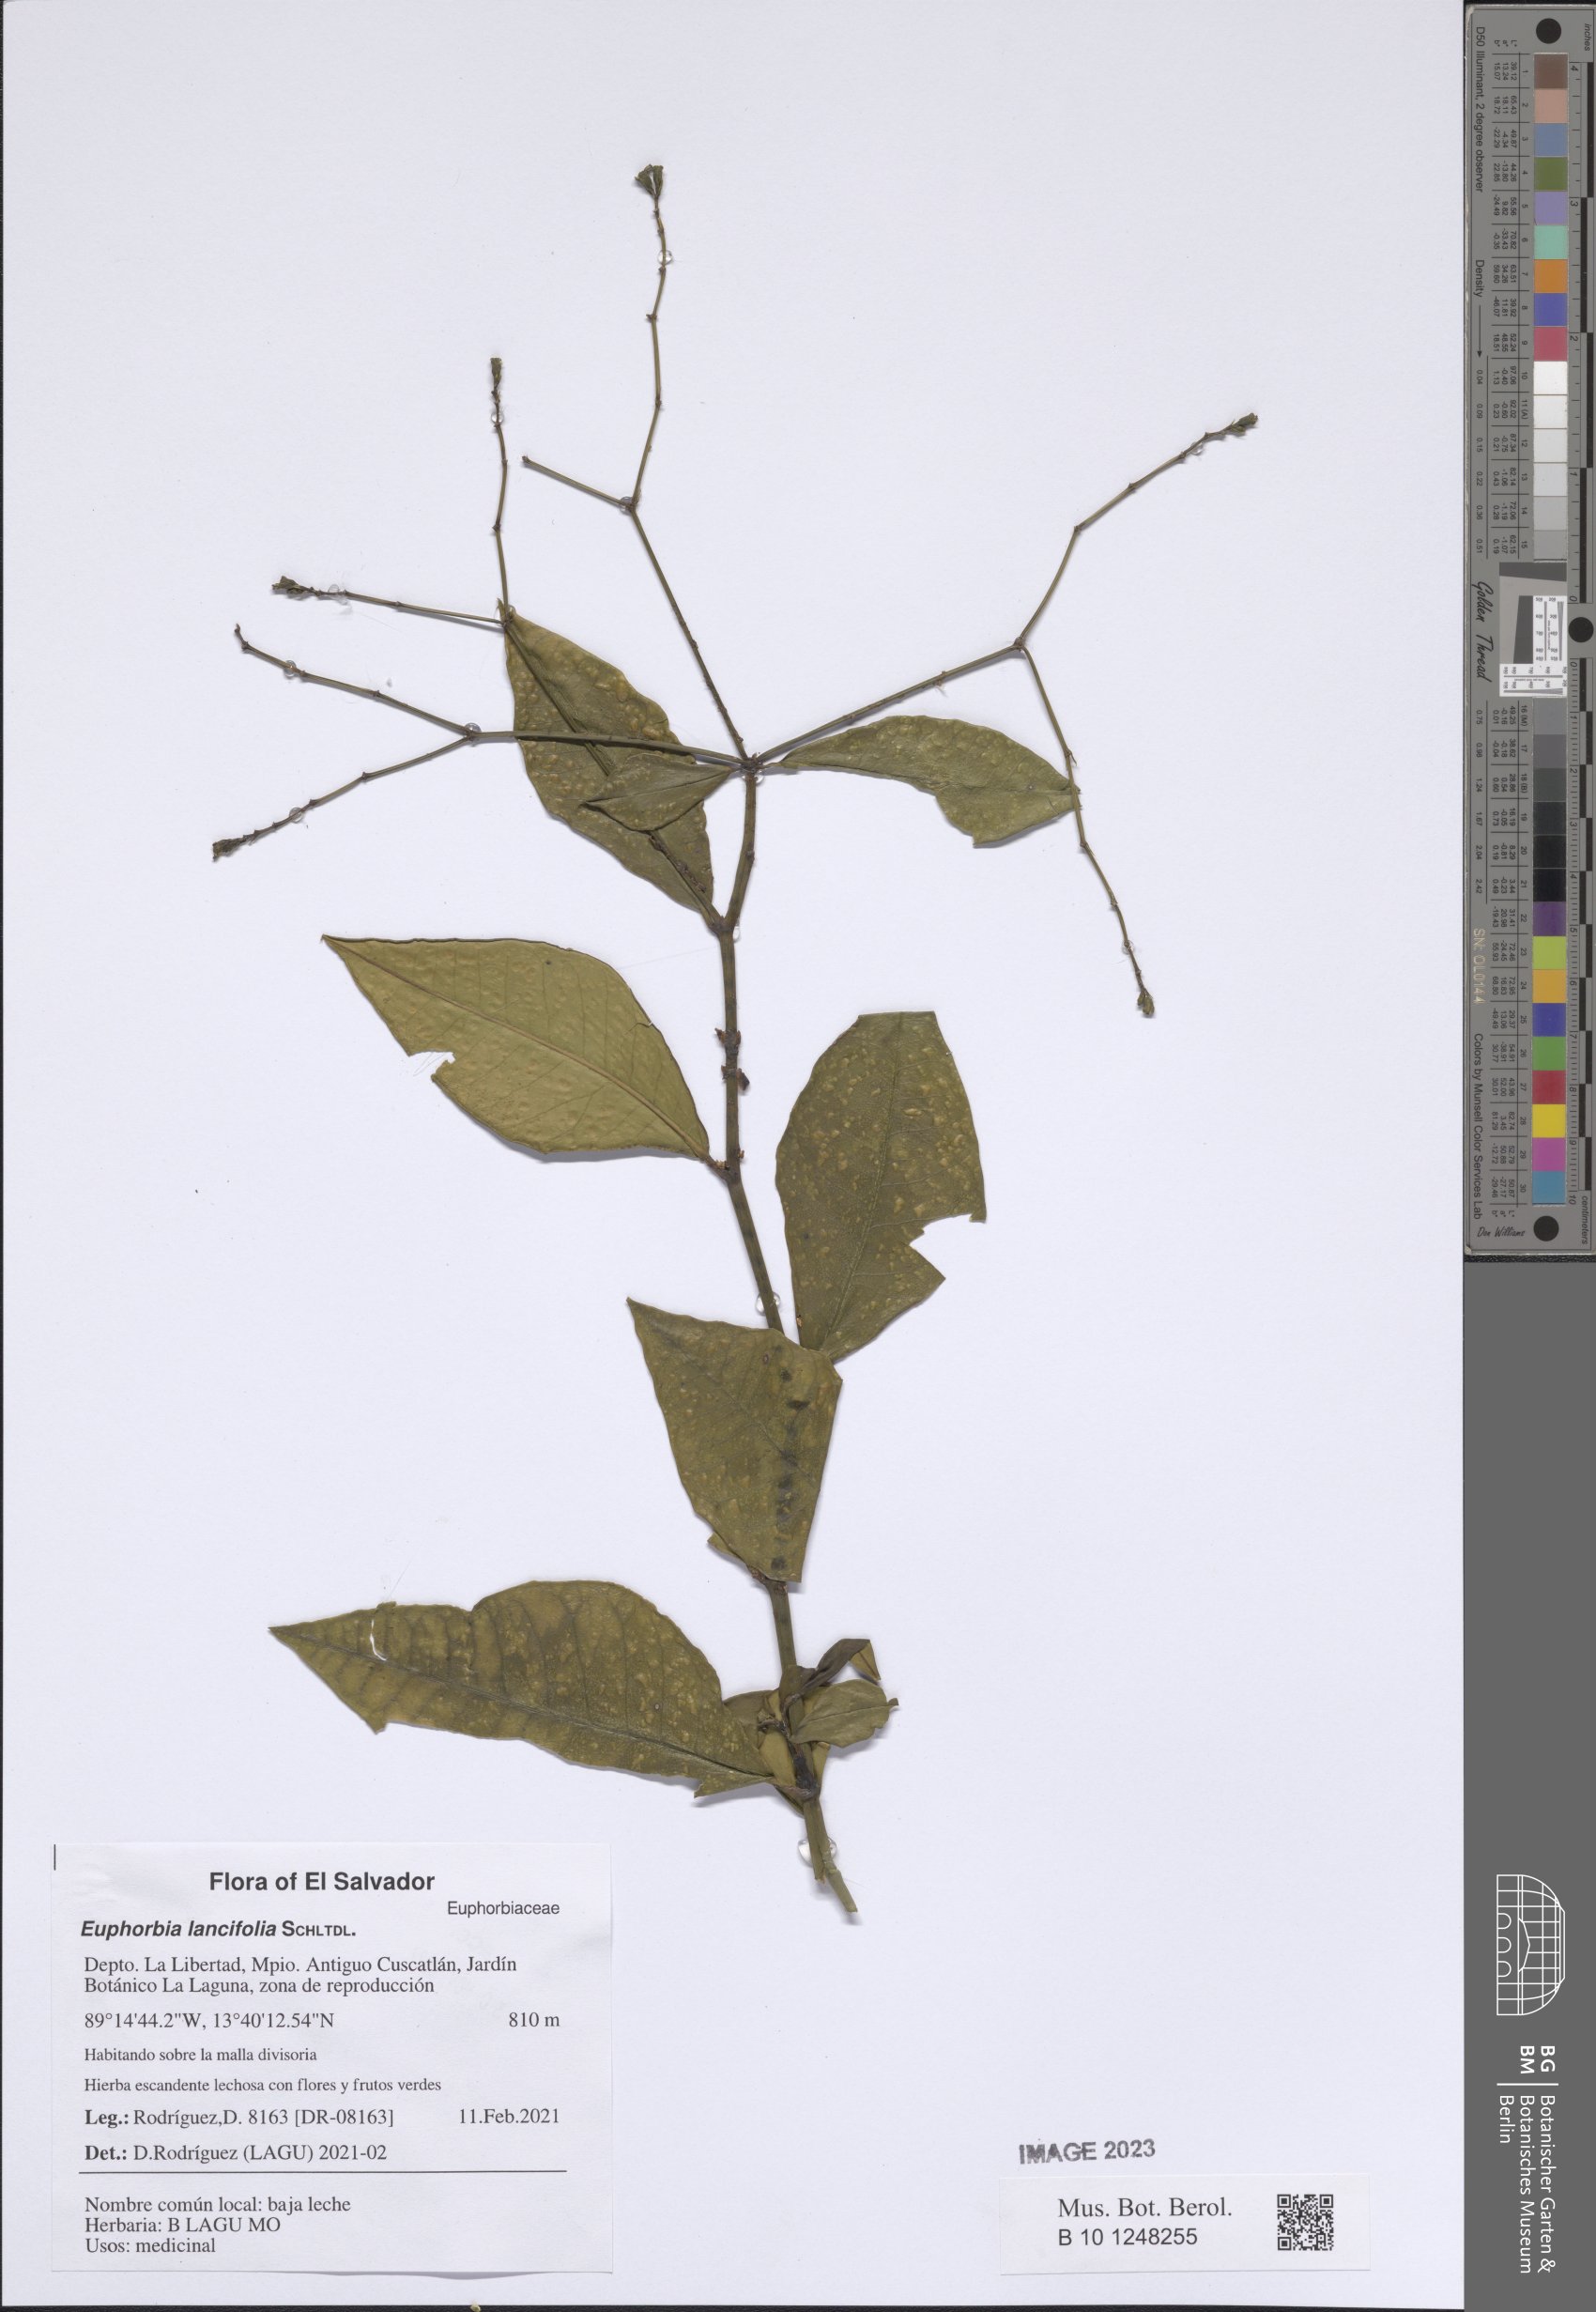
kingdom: Plantae
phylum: Tracheophyta
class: Magnoliopsida
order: Malpighiales
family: Euphorbiaceae
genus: Euphorbia
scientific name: Euphorbia lancifolia
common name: Ixbut
